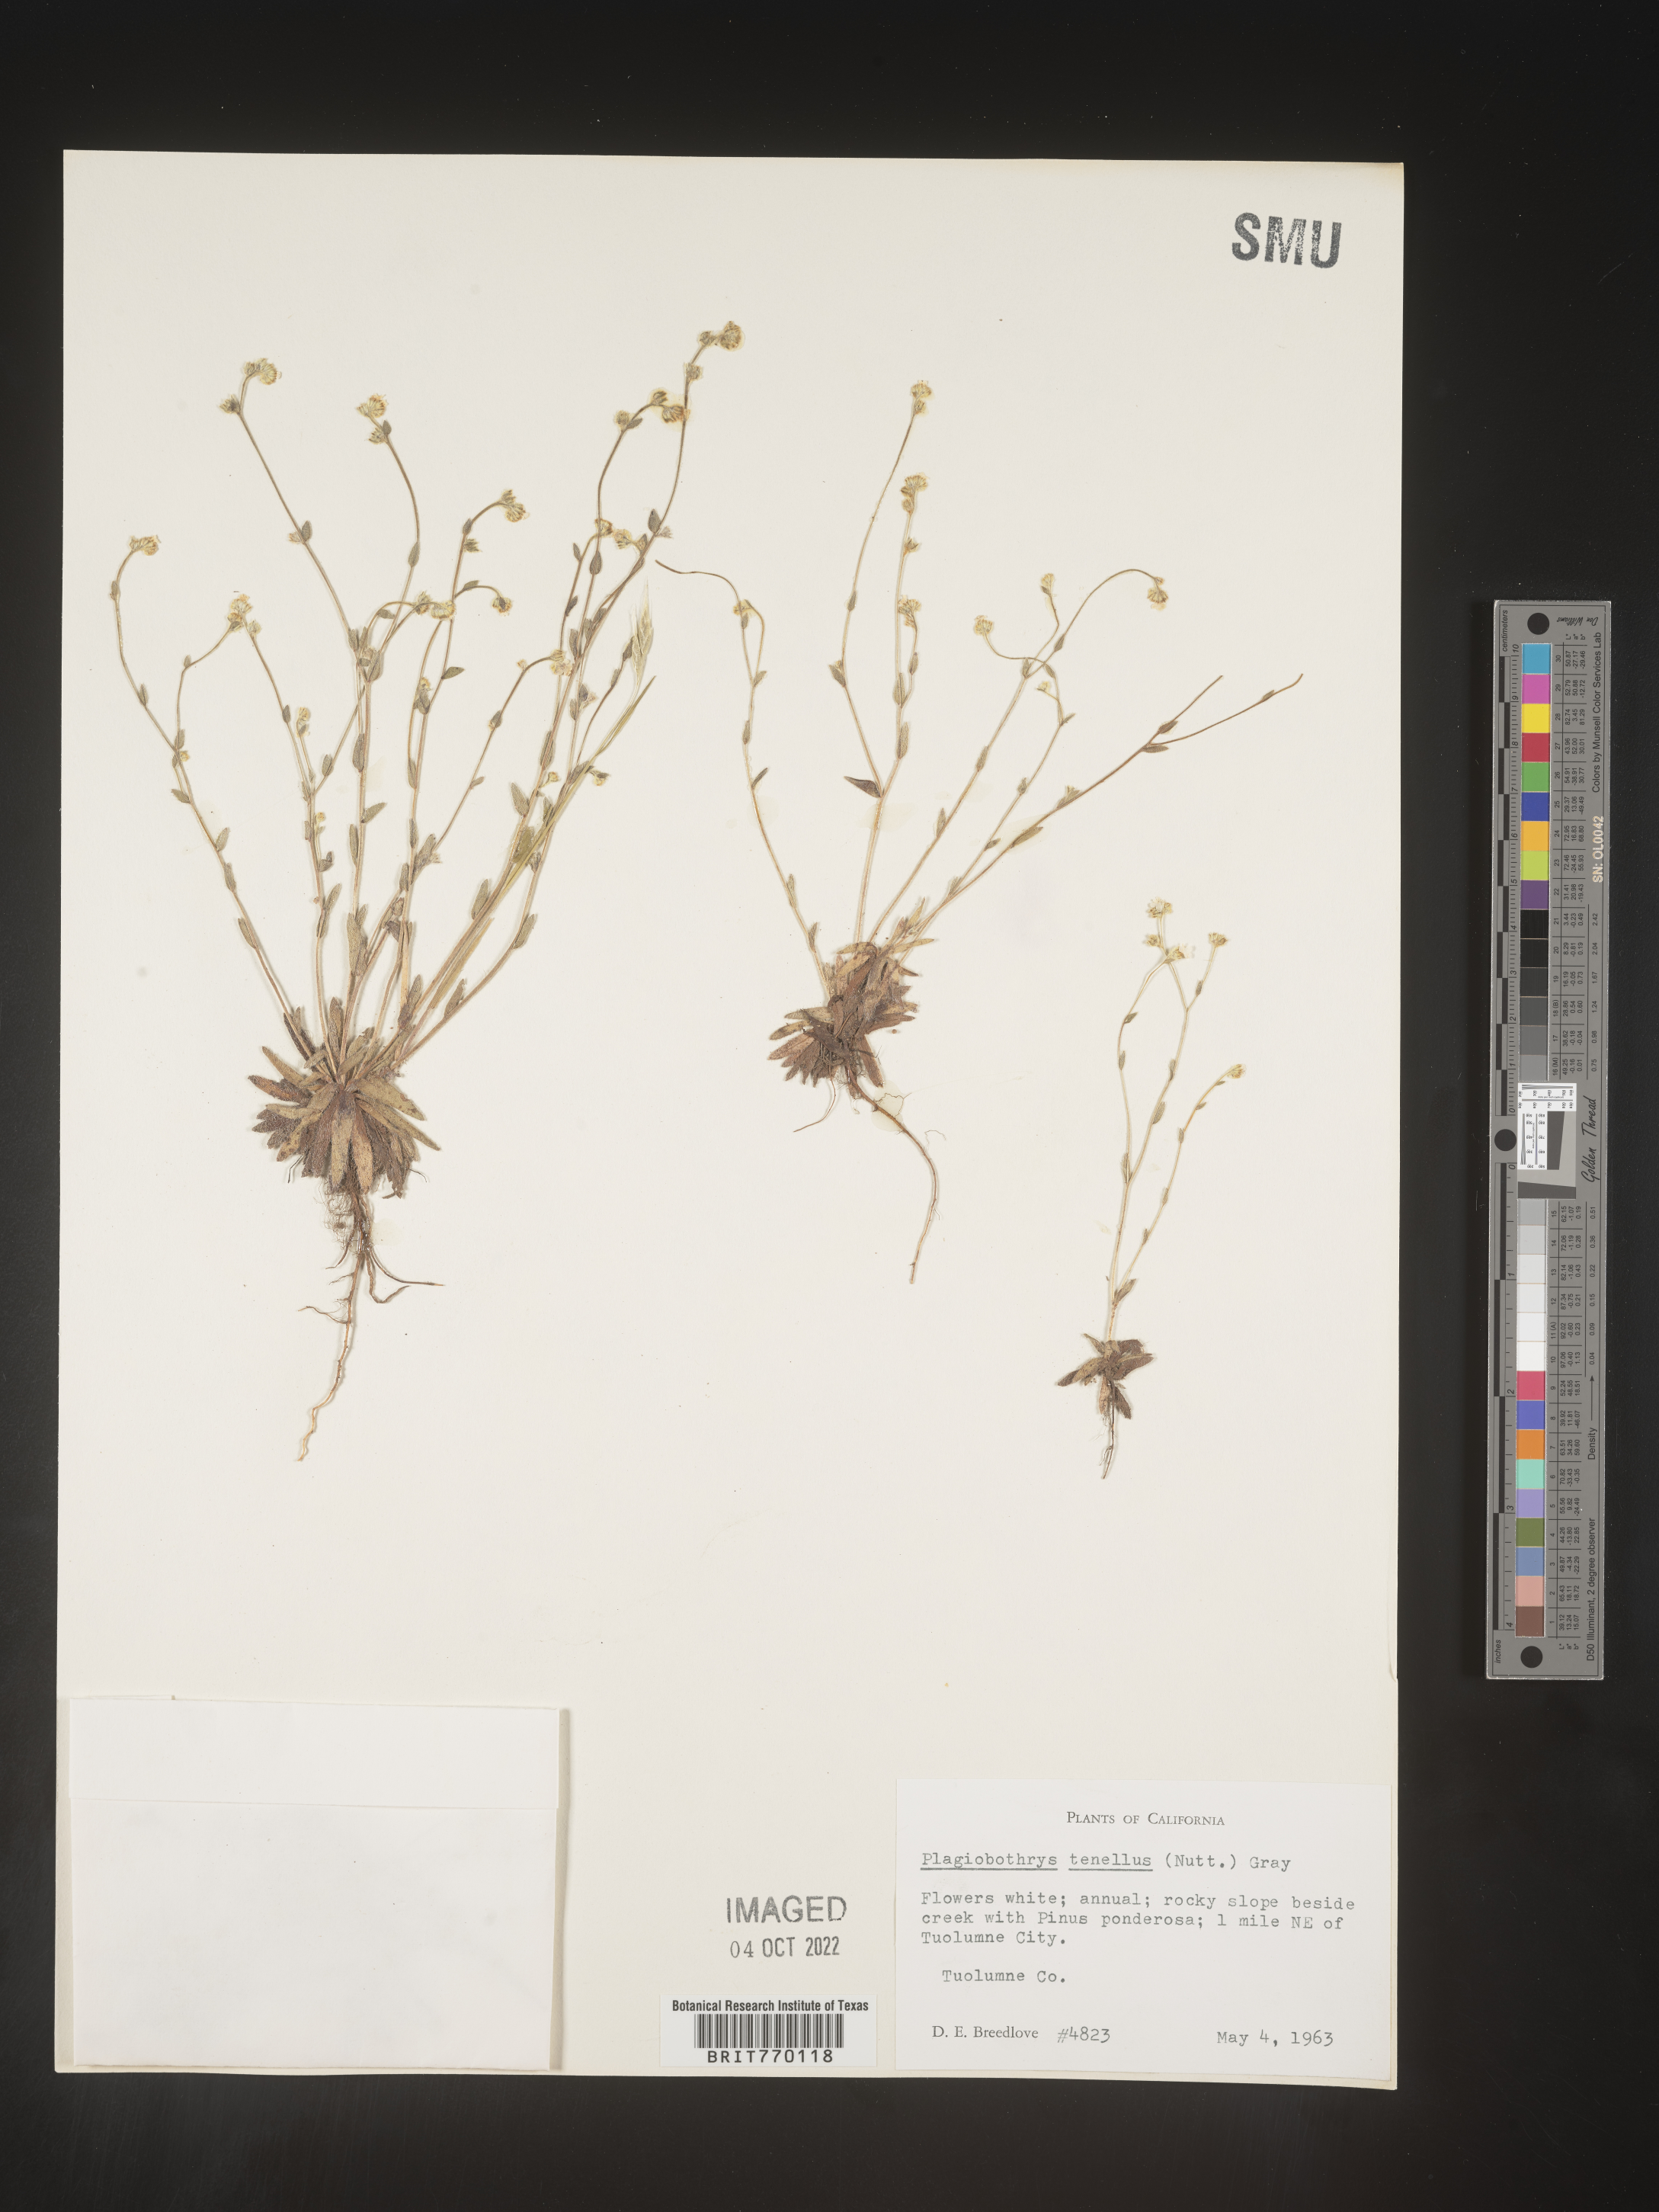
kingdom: Plantae
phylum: Tracheophyta
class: Magnoliopsida
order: Boraginales
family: Boraginaceae
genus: Plagiobothrys
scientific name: Plagiobothrys
